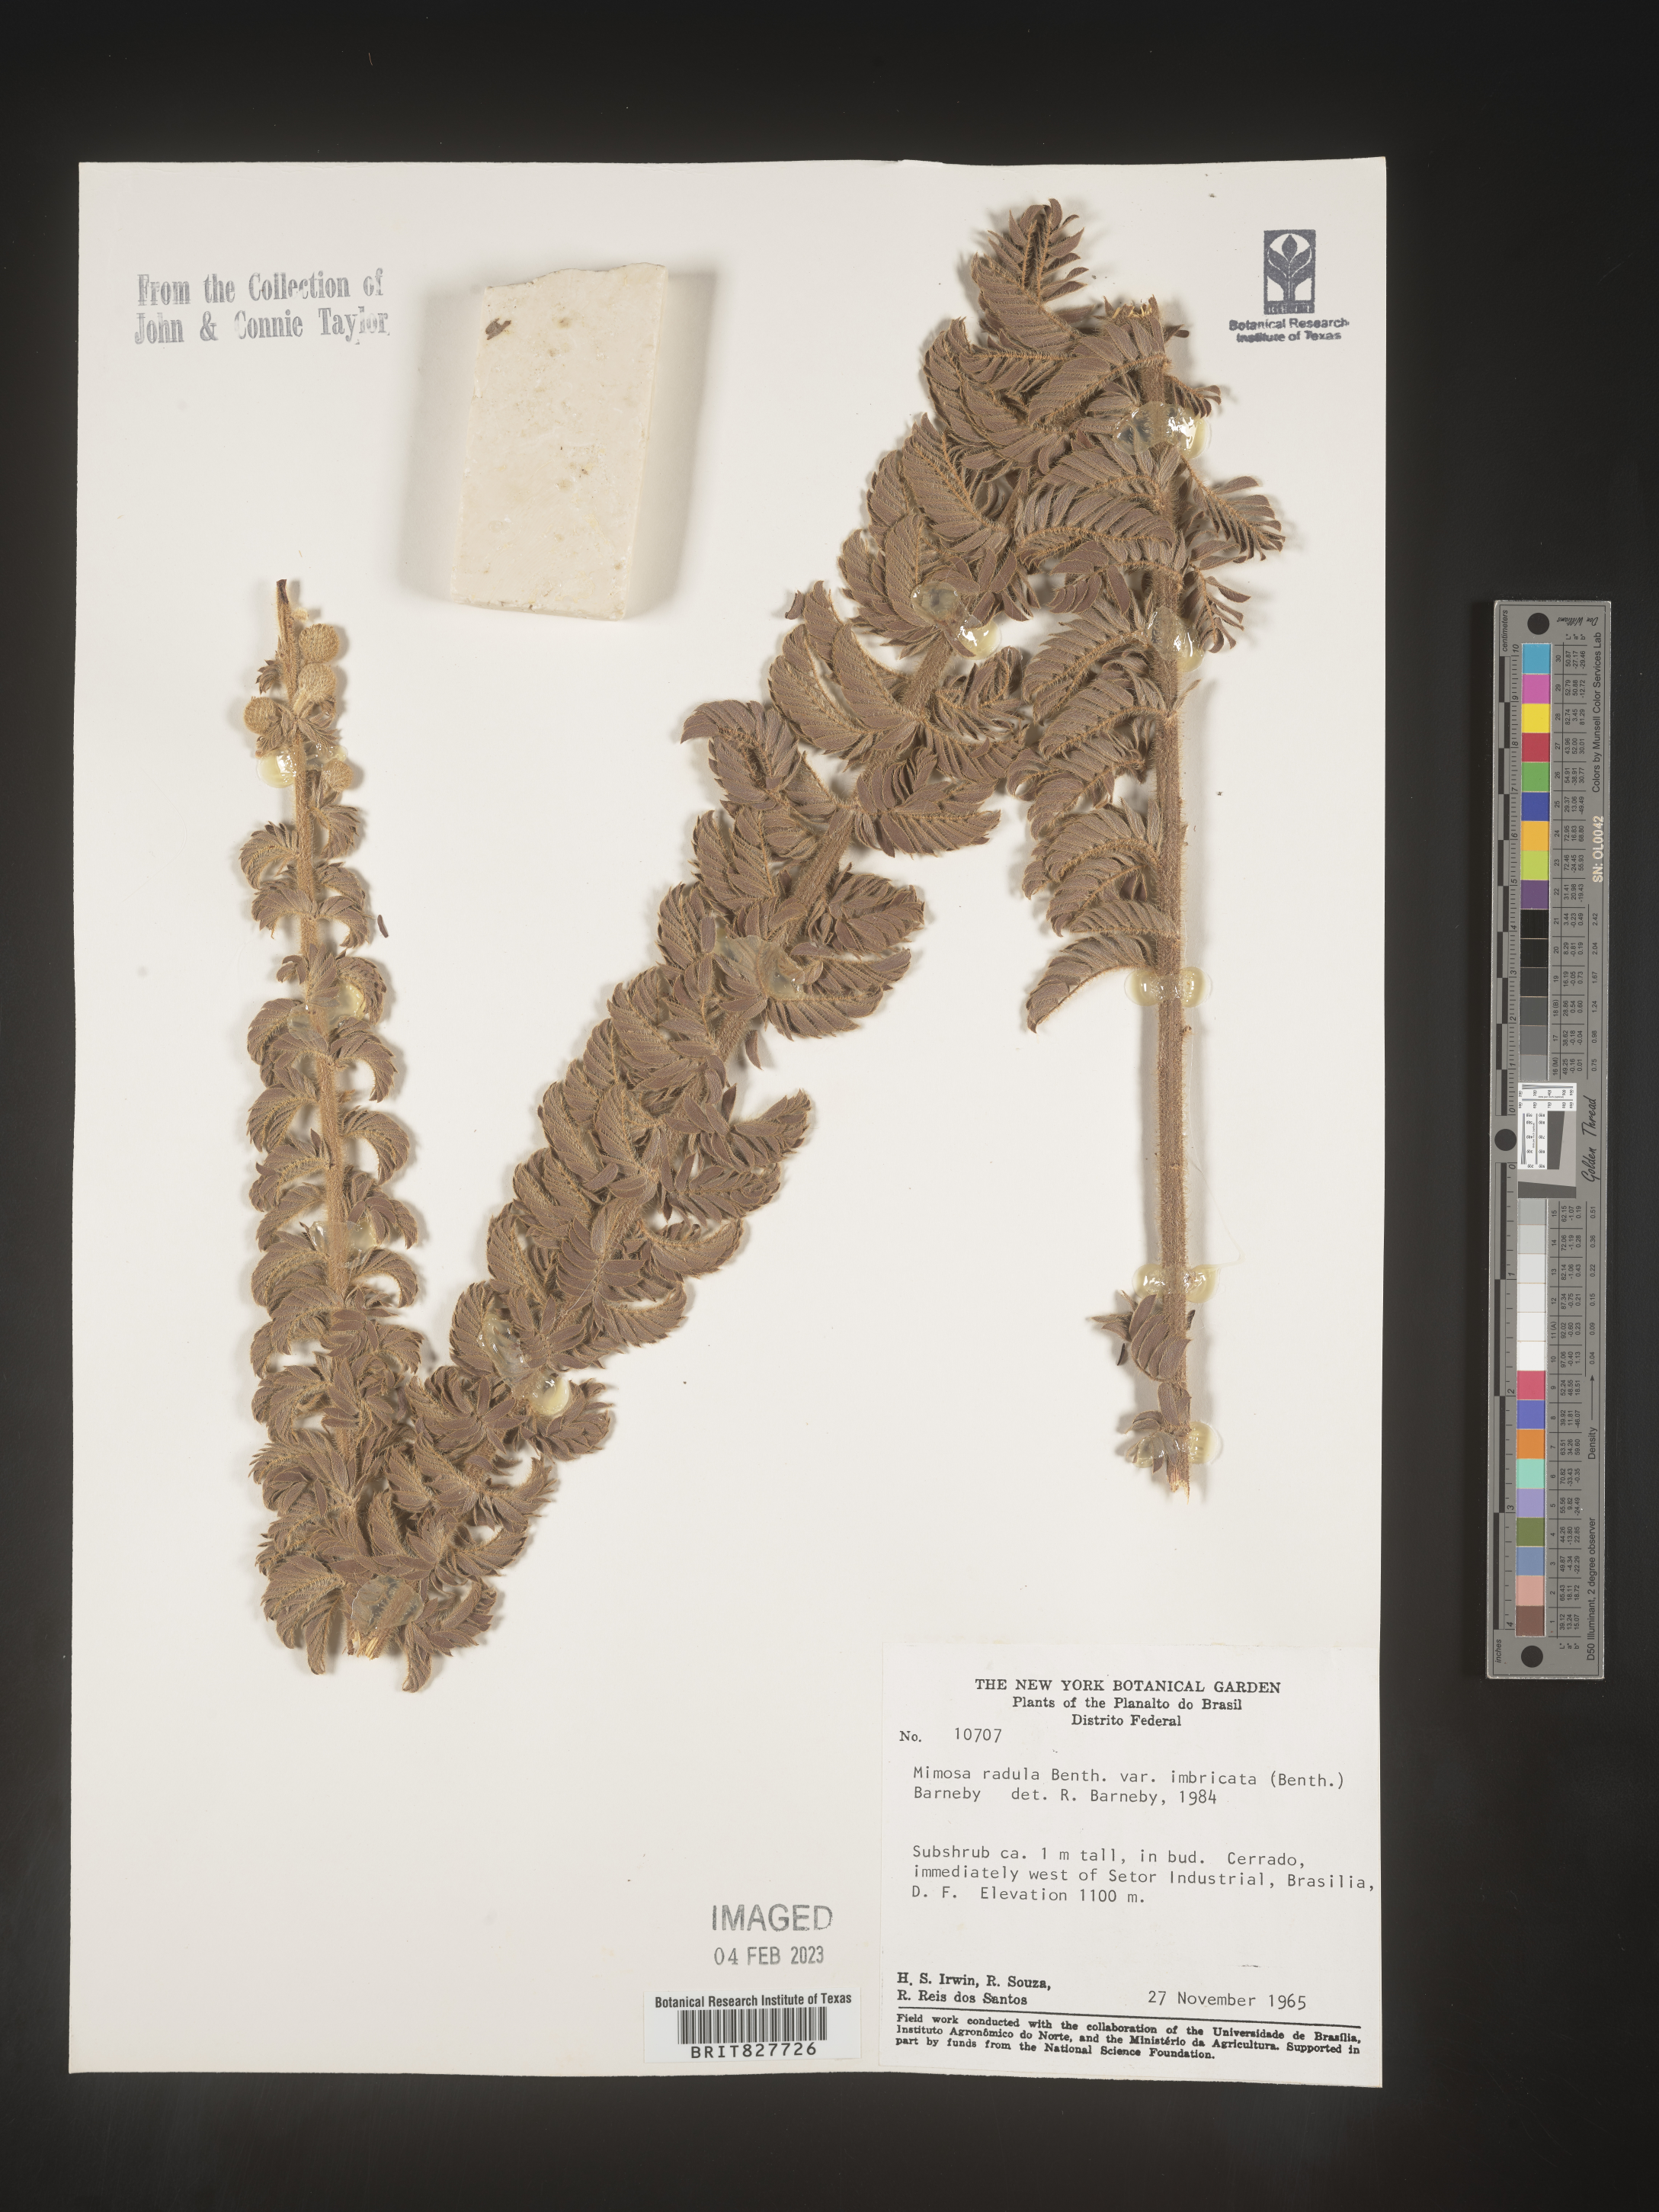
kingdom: Plantae
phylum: Tracheophyta
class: Magnoliopsida
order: Fabales
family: Fabaceae
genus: Mimosa
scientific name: Mimosa
